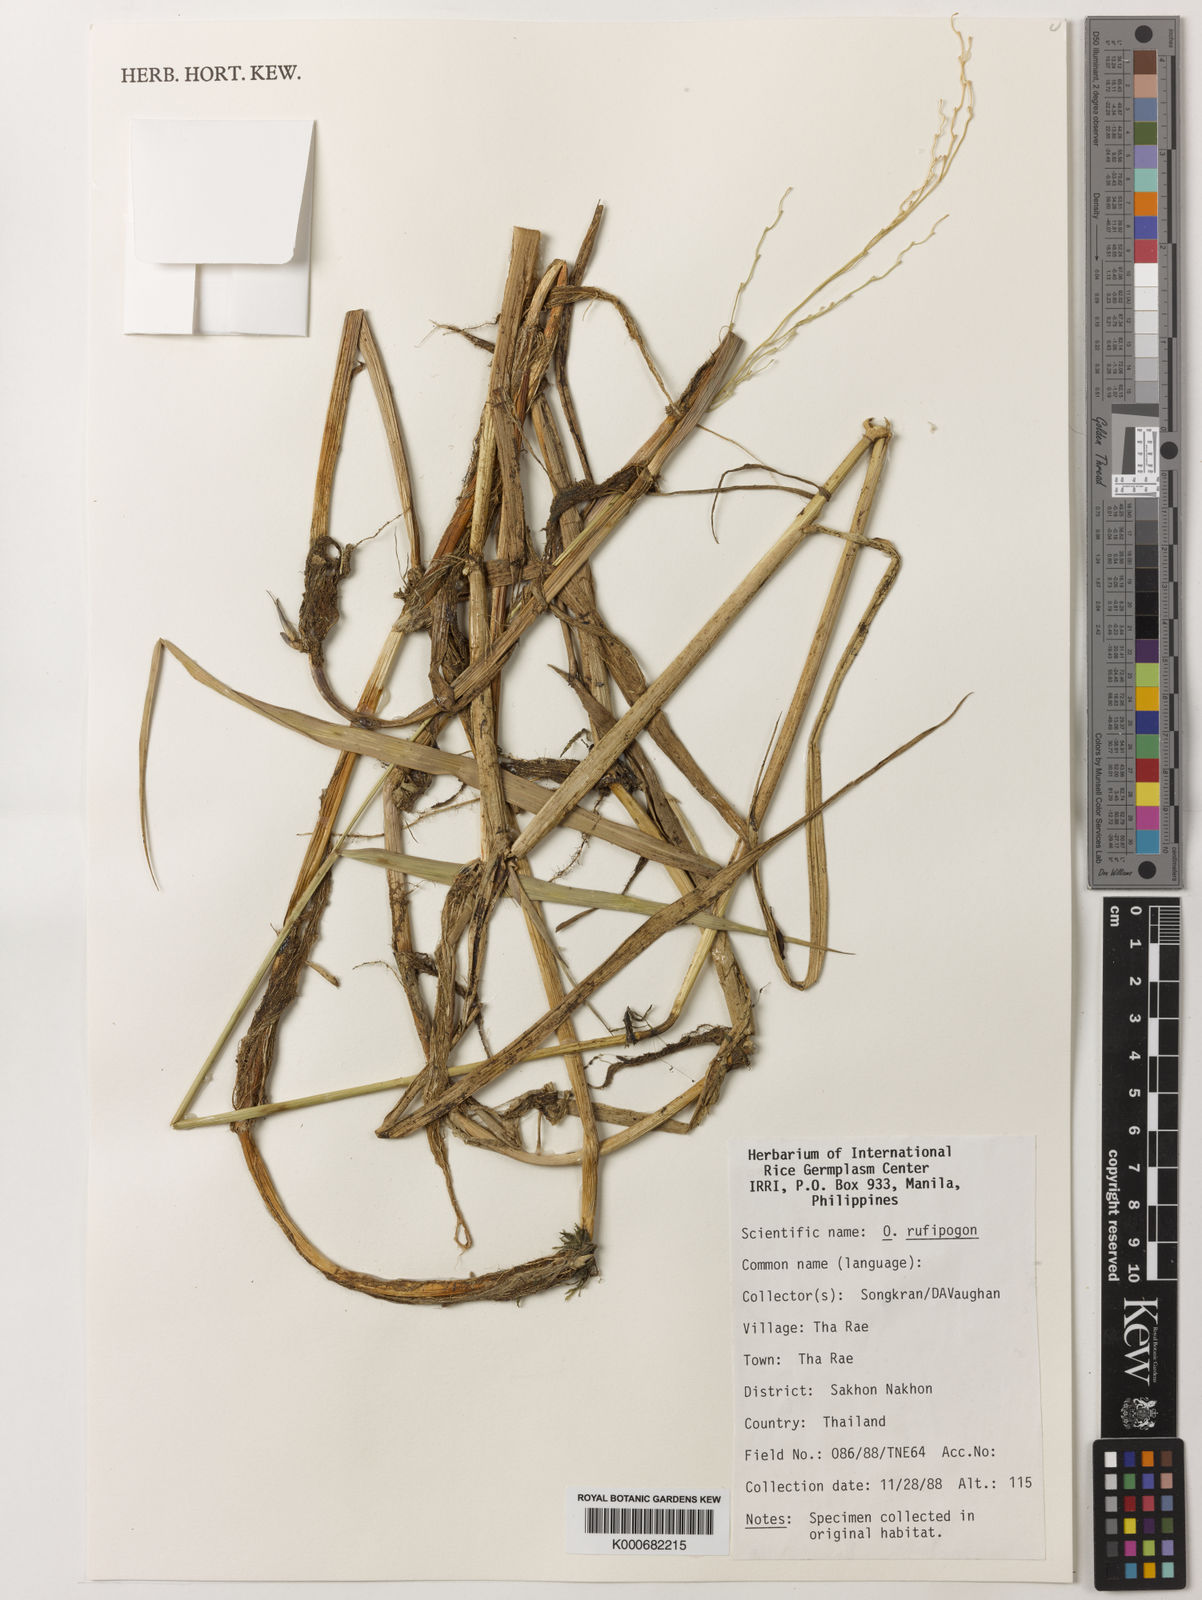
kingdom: Plantae
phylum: Tracheophyta
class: Liliopsida
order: Poales
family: Poaceae
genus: Oryza
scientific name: Oryza rufipogon
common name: Red rice
